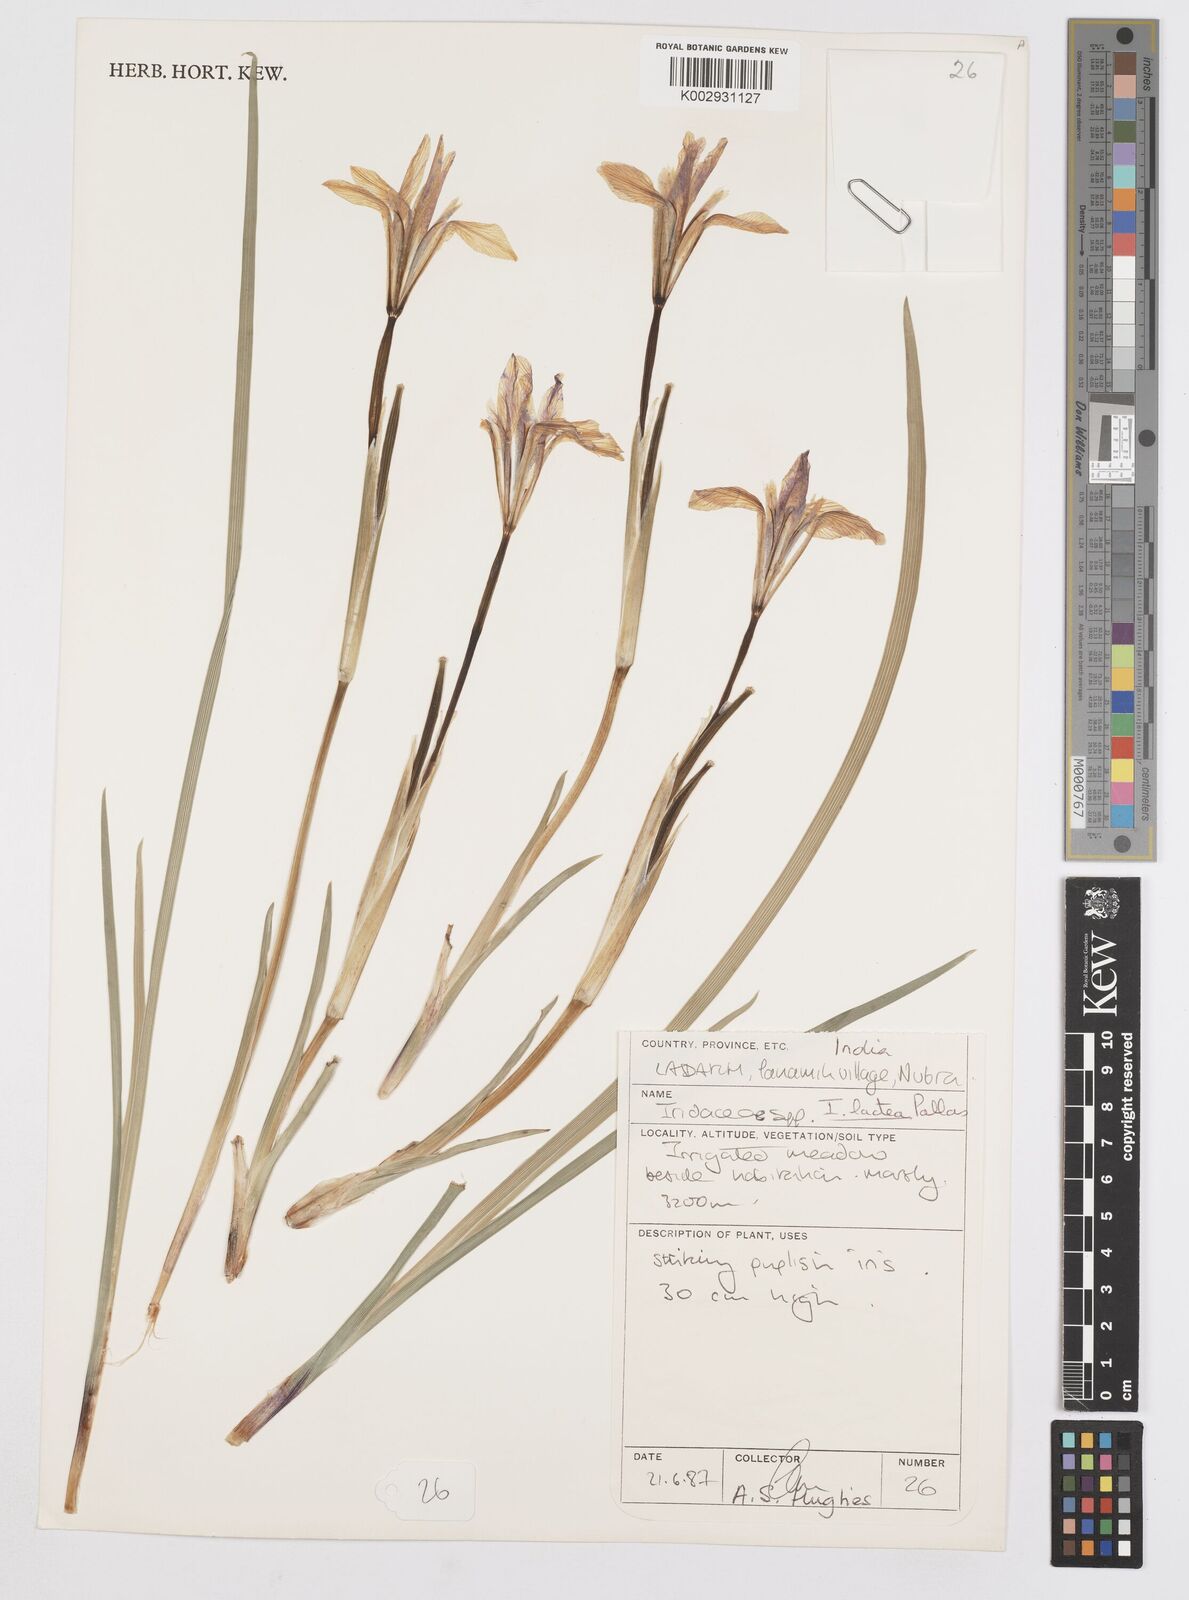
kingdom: Plantae
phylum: Tracheophyta
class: Liliopsida
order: Asparagales
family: Iridaceae
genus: Iris
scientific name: Iris lactea
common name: White-flower chinese iris
